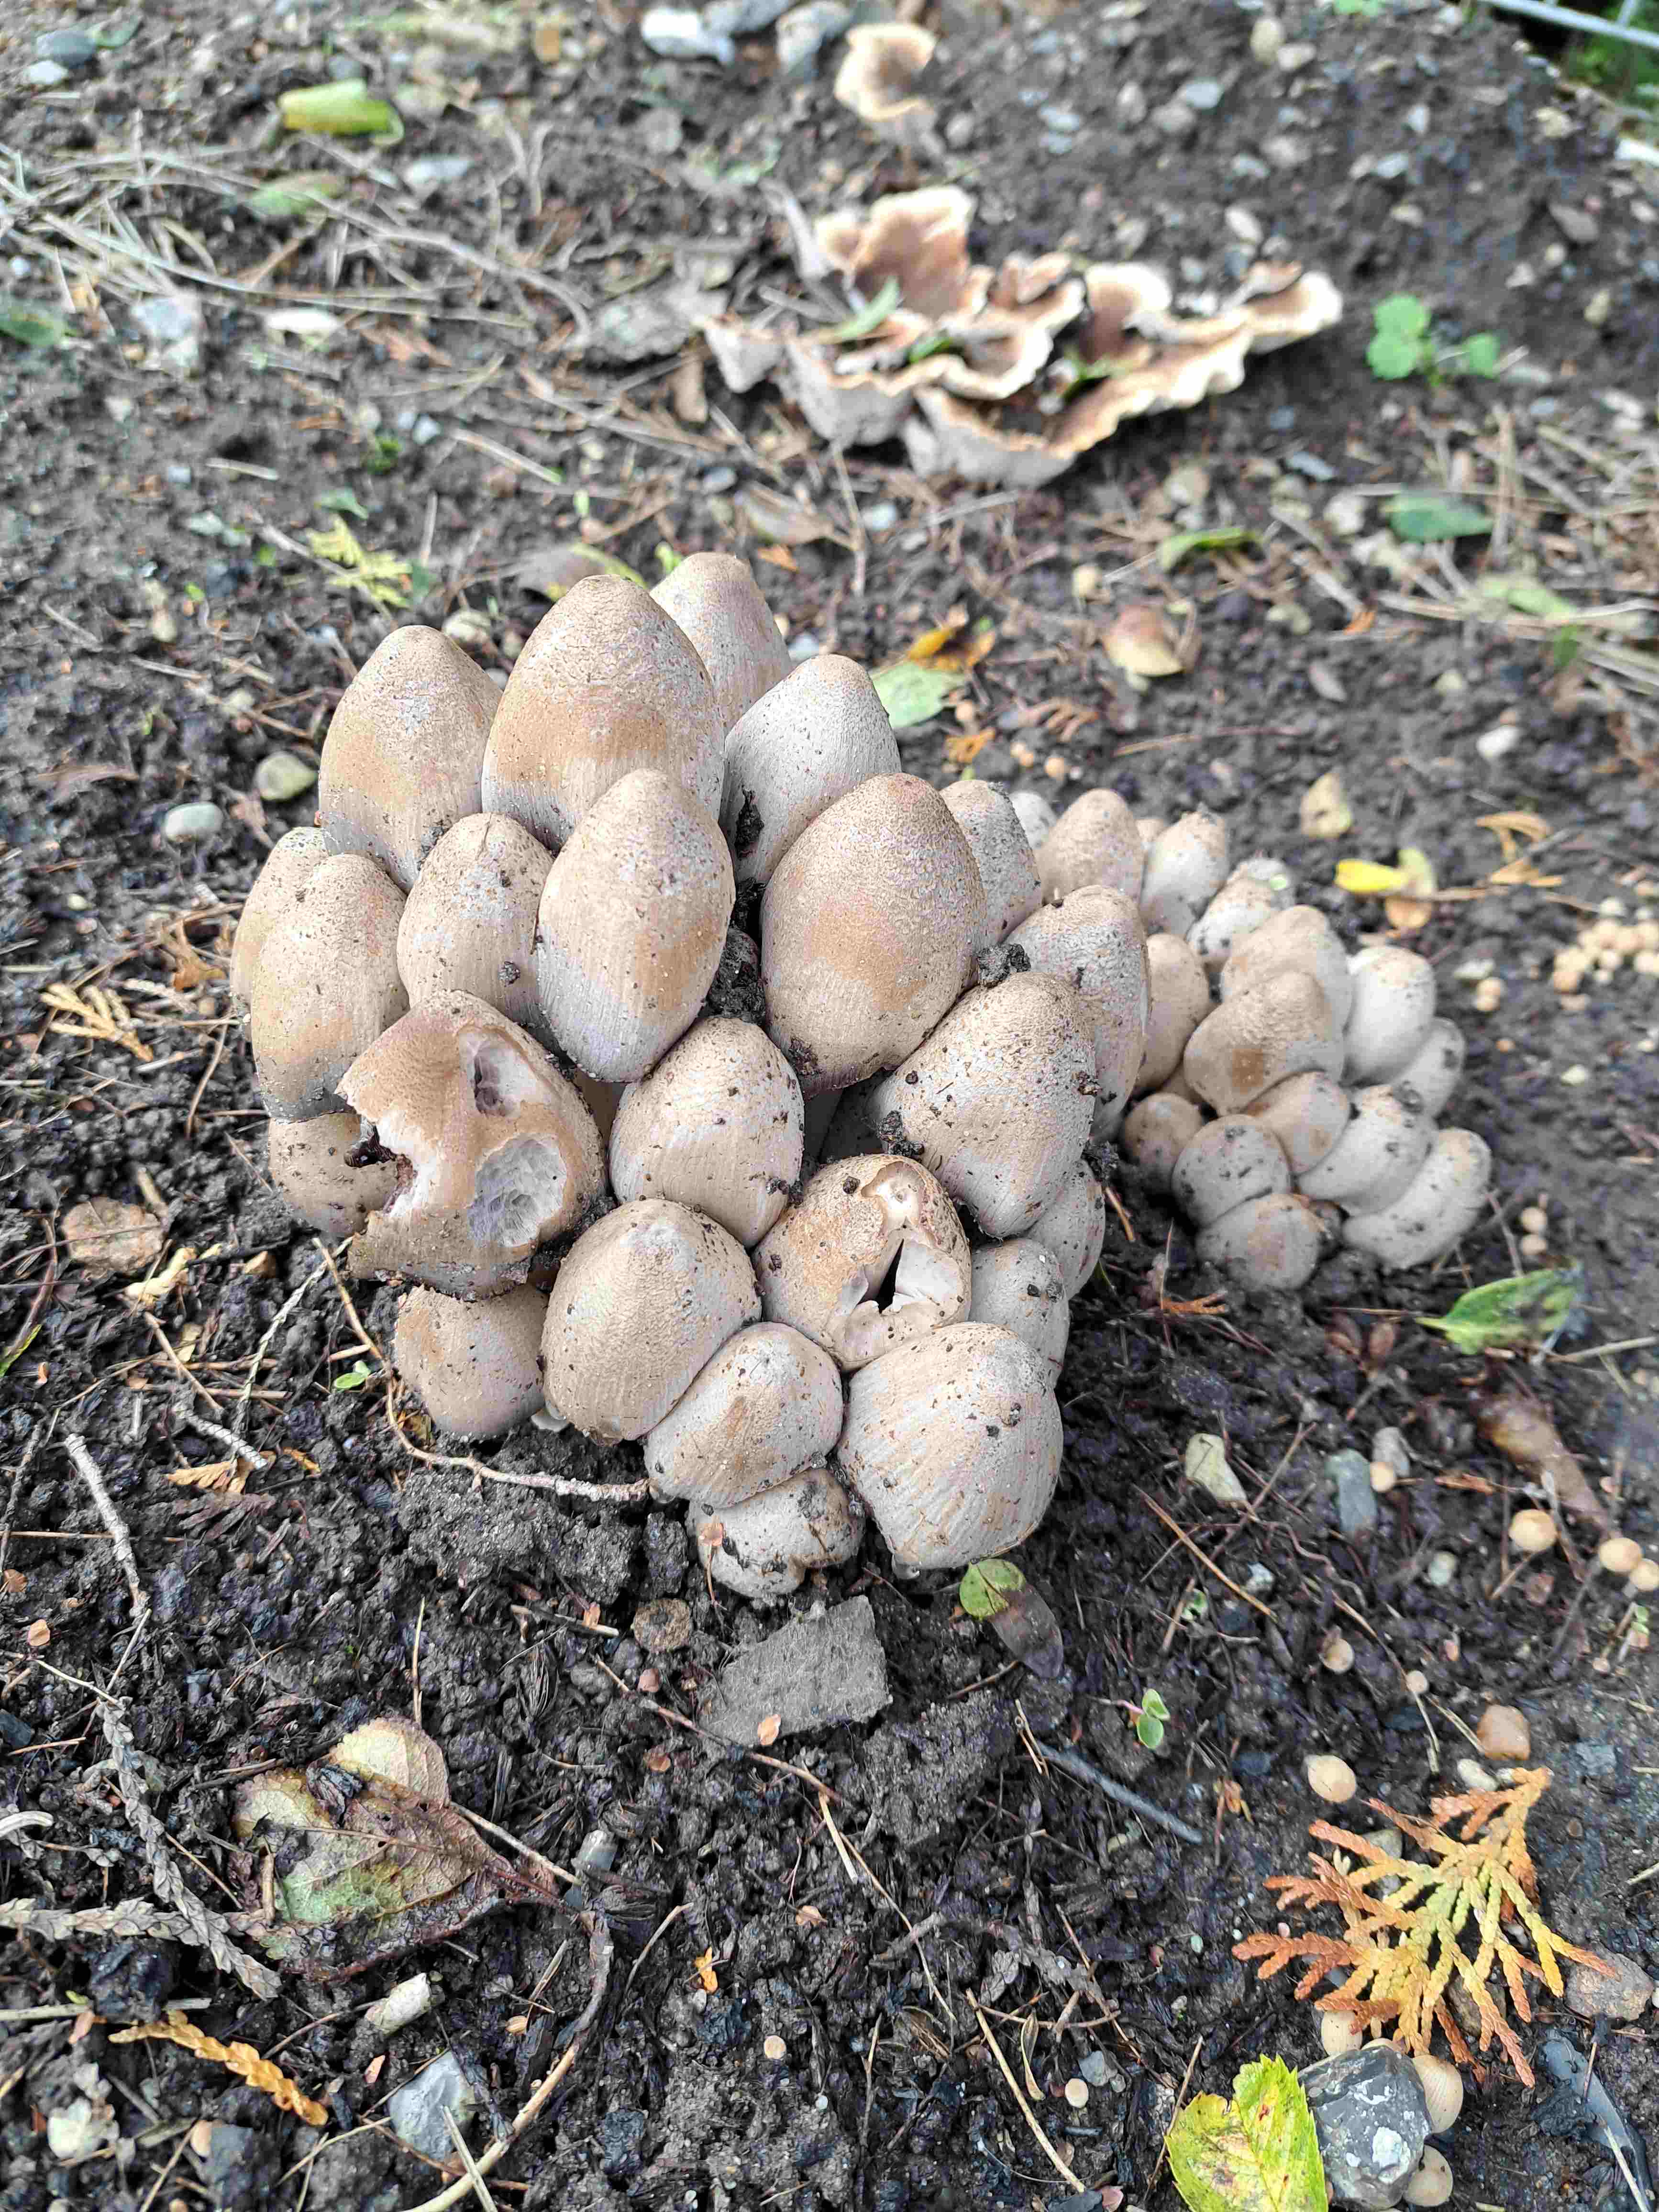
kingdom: Fungi
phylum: Basidiomycota
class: Agaricomycetes
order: Agaricales
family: Psathyrellaceae
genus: Coprinopsis
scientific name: Coprinopsis
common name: blækhat
